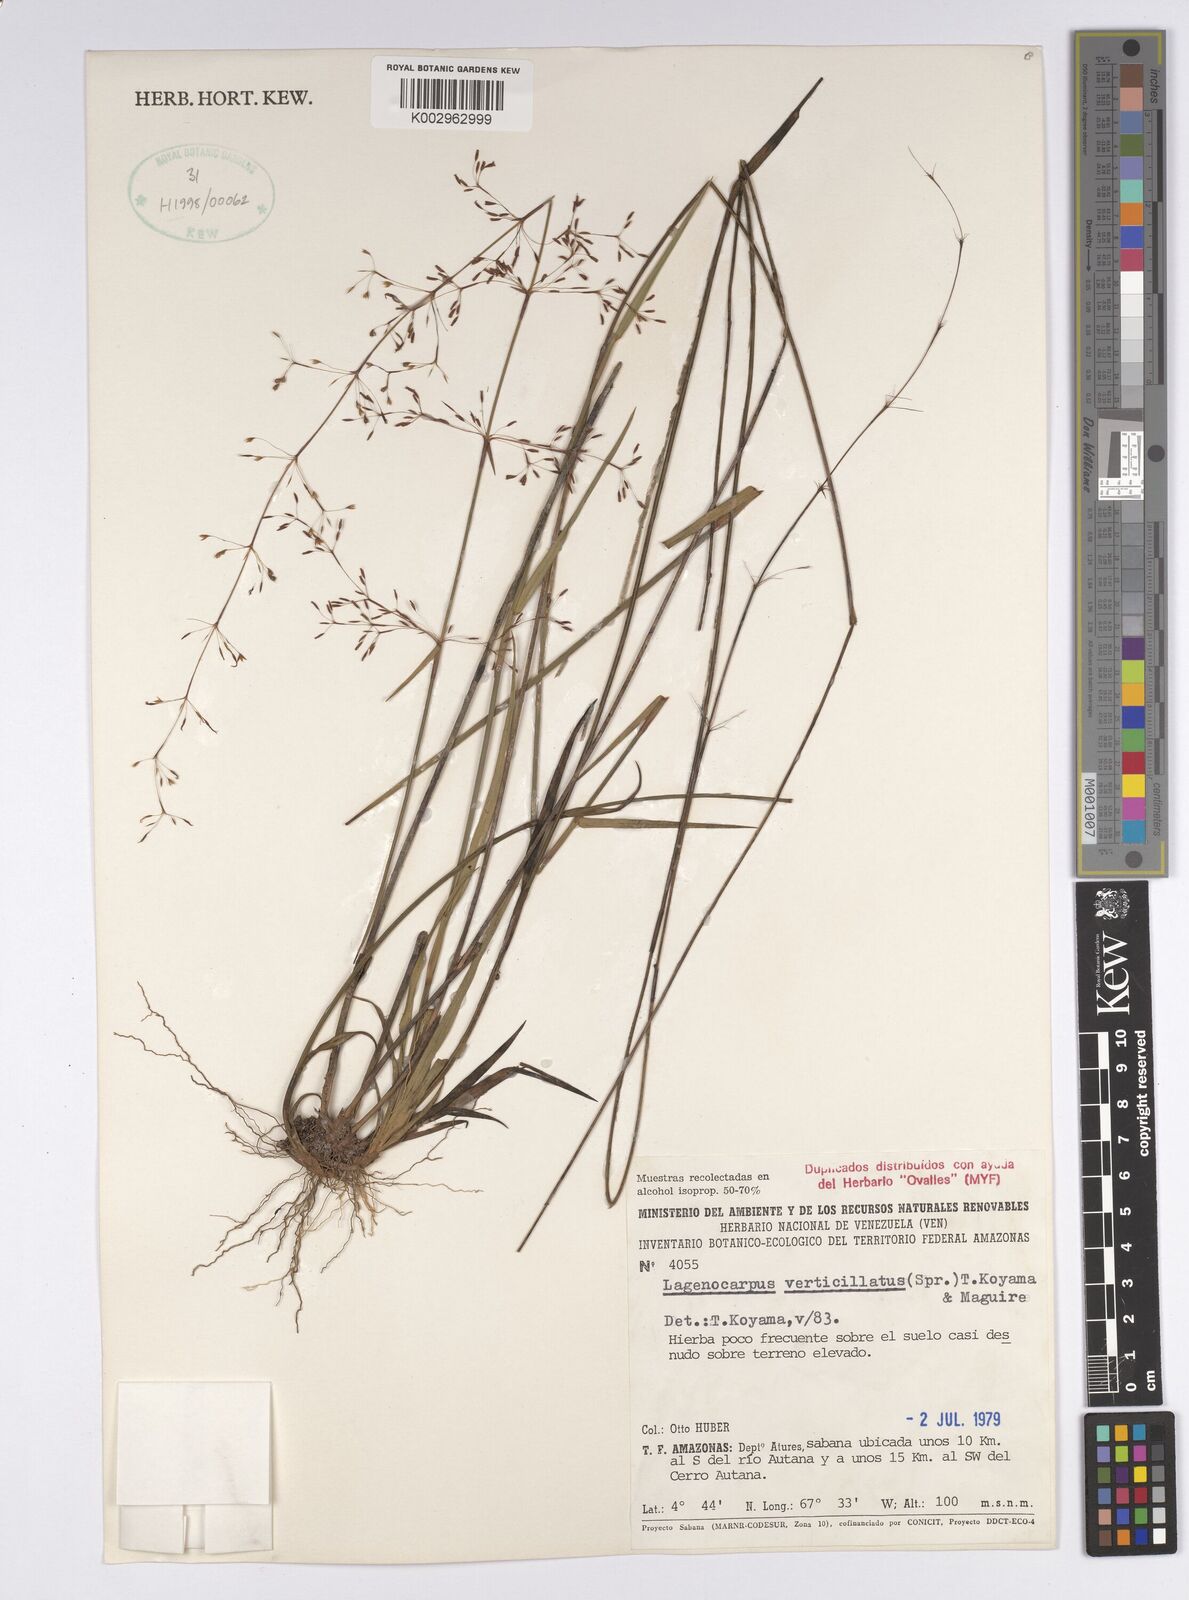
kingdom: Plantae
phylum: Tracheophyta
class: Liliopsida
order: Poales
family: Cyperaceae
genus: Cryptangium
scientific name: Cryptangium verticillatum
